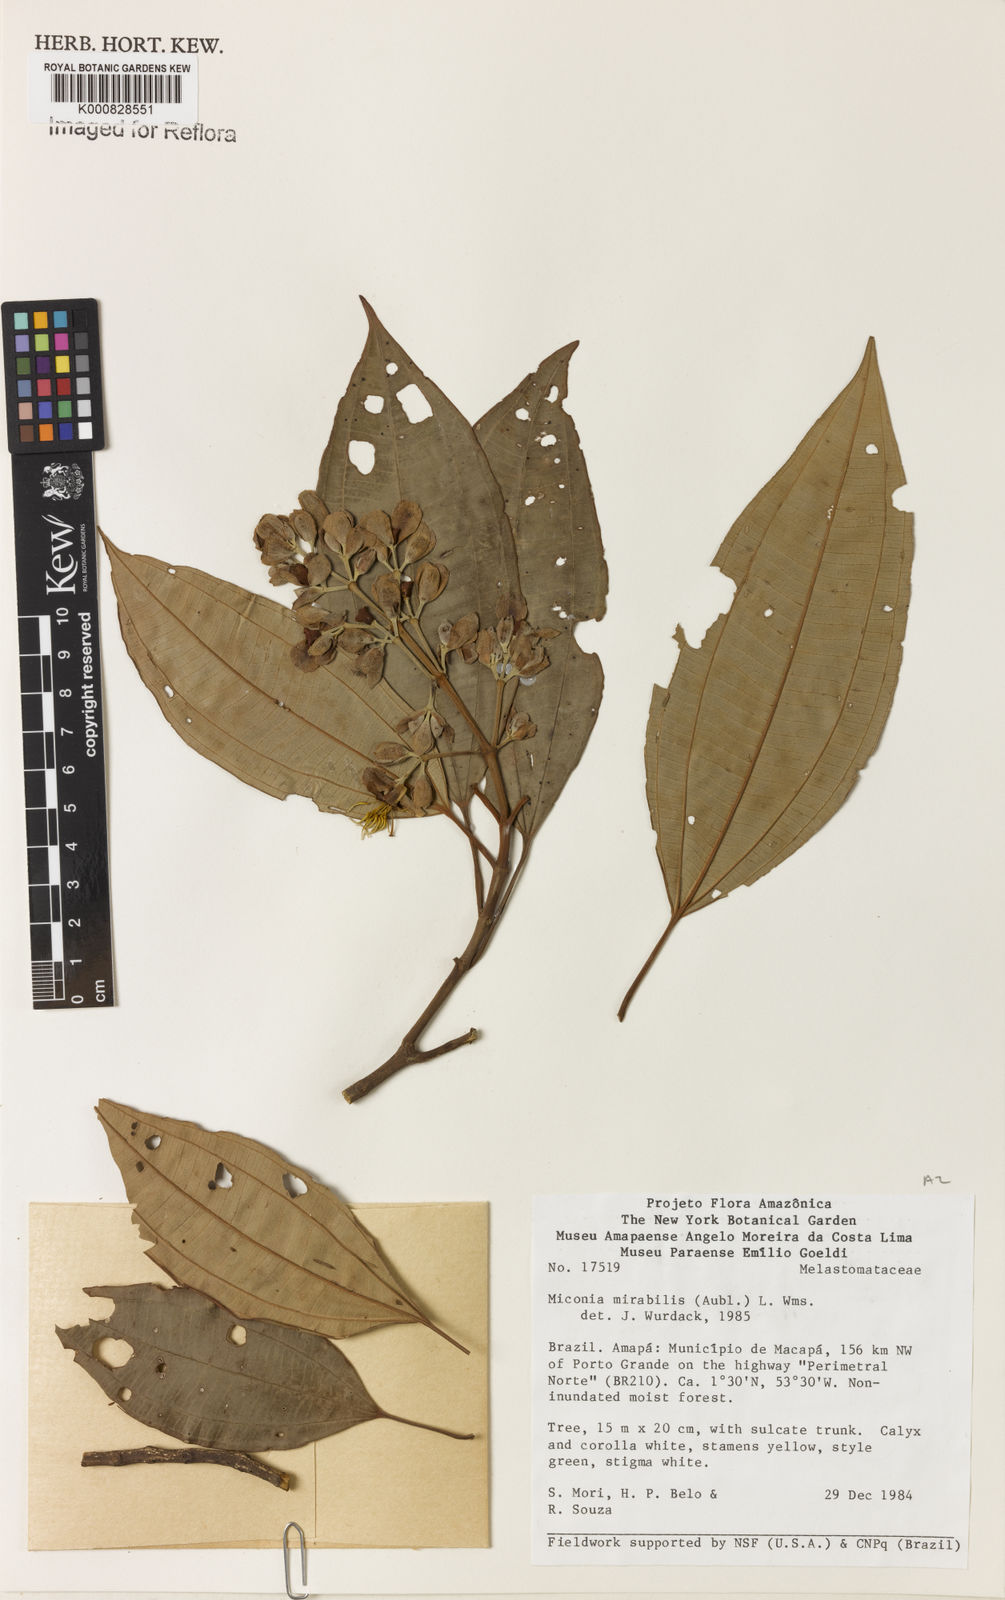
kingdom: Plantae
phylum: Tracheophyta
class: Magnoliopsida
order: Myrtales
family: Melastomataceae
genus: Miconia
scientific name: Miconia mirabilis
